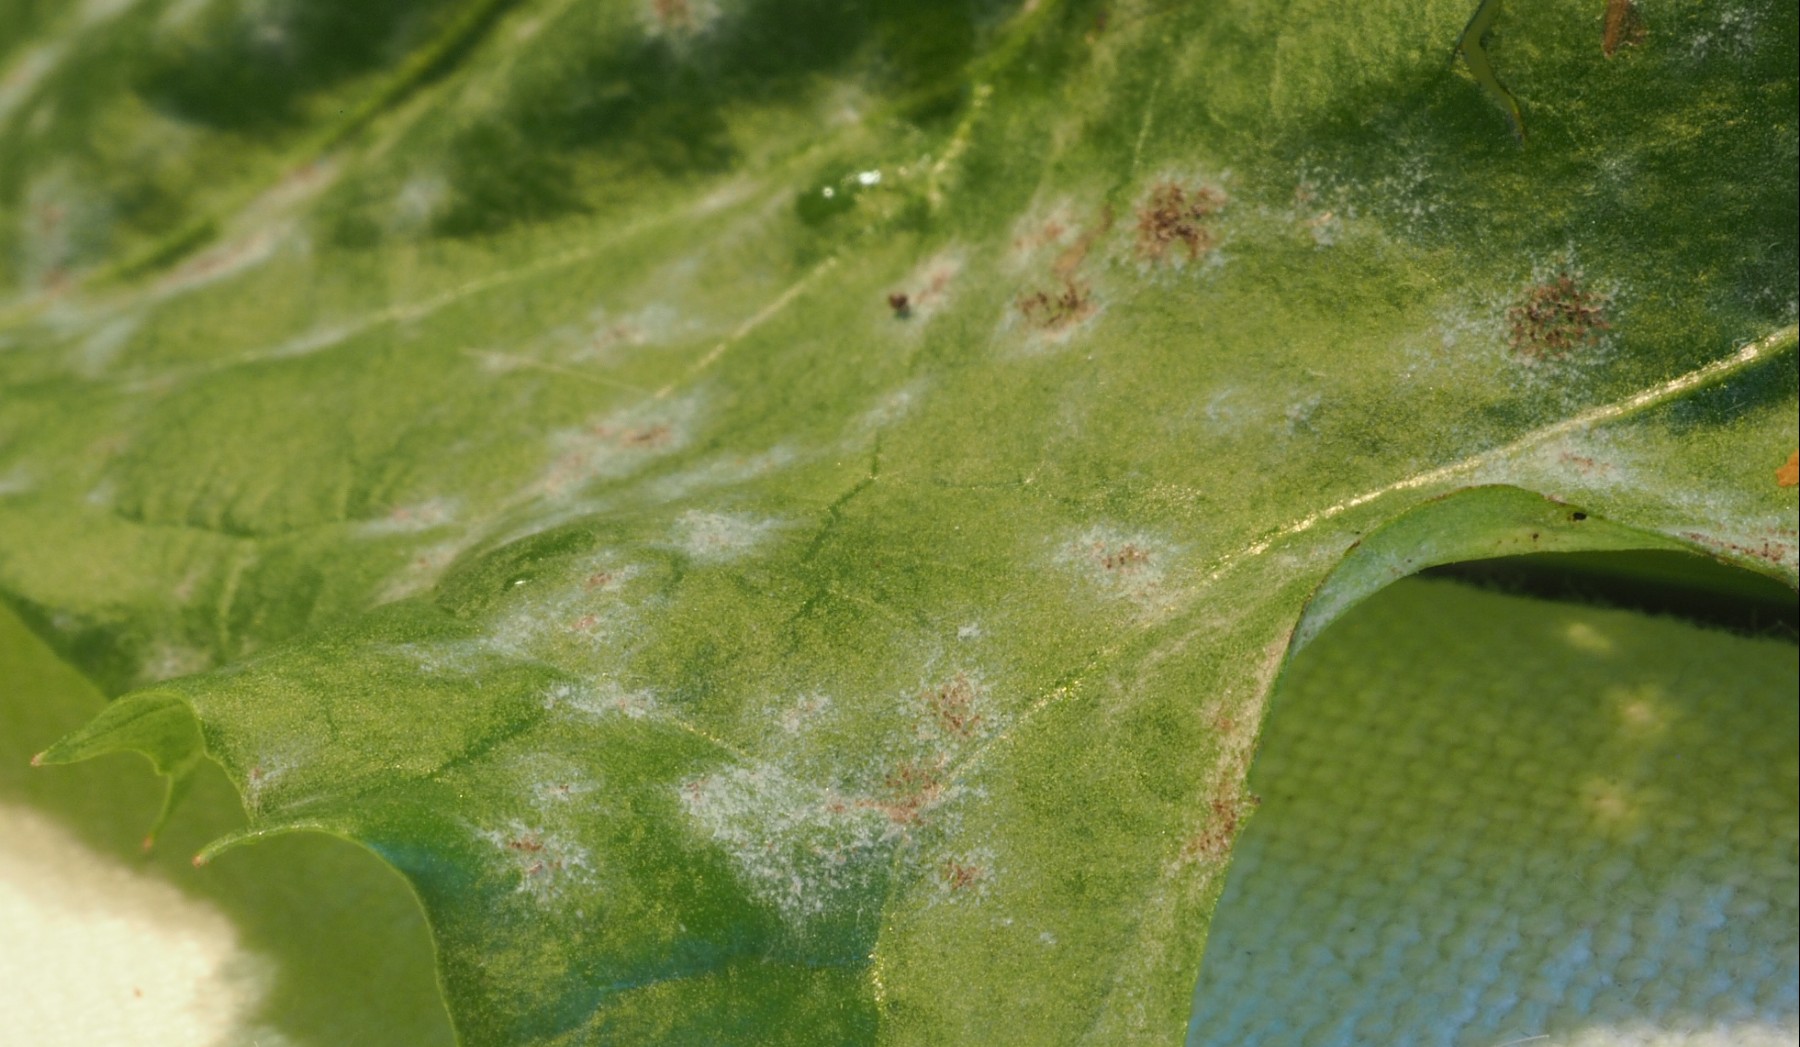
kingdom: Fungi
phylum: Ascomycota
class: Leotiomycetes
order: Helotiales
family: Erysiphaceae
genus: Podosphaera
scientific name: Podosphaera erigerontis-canadensis
